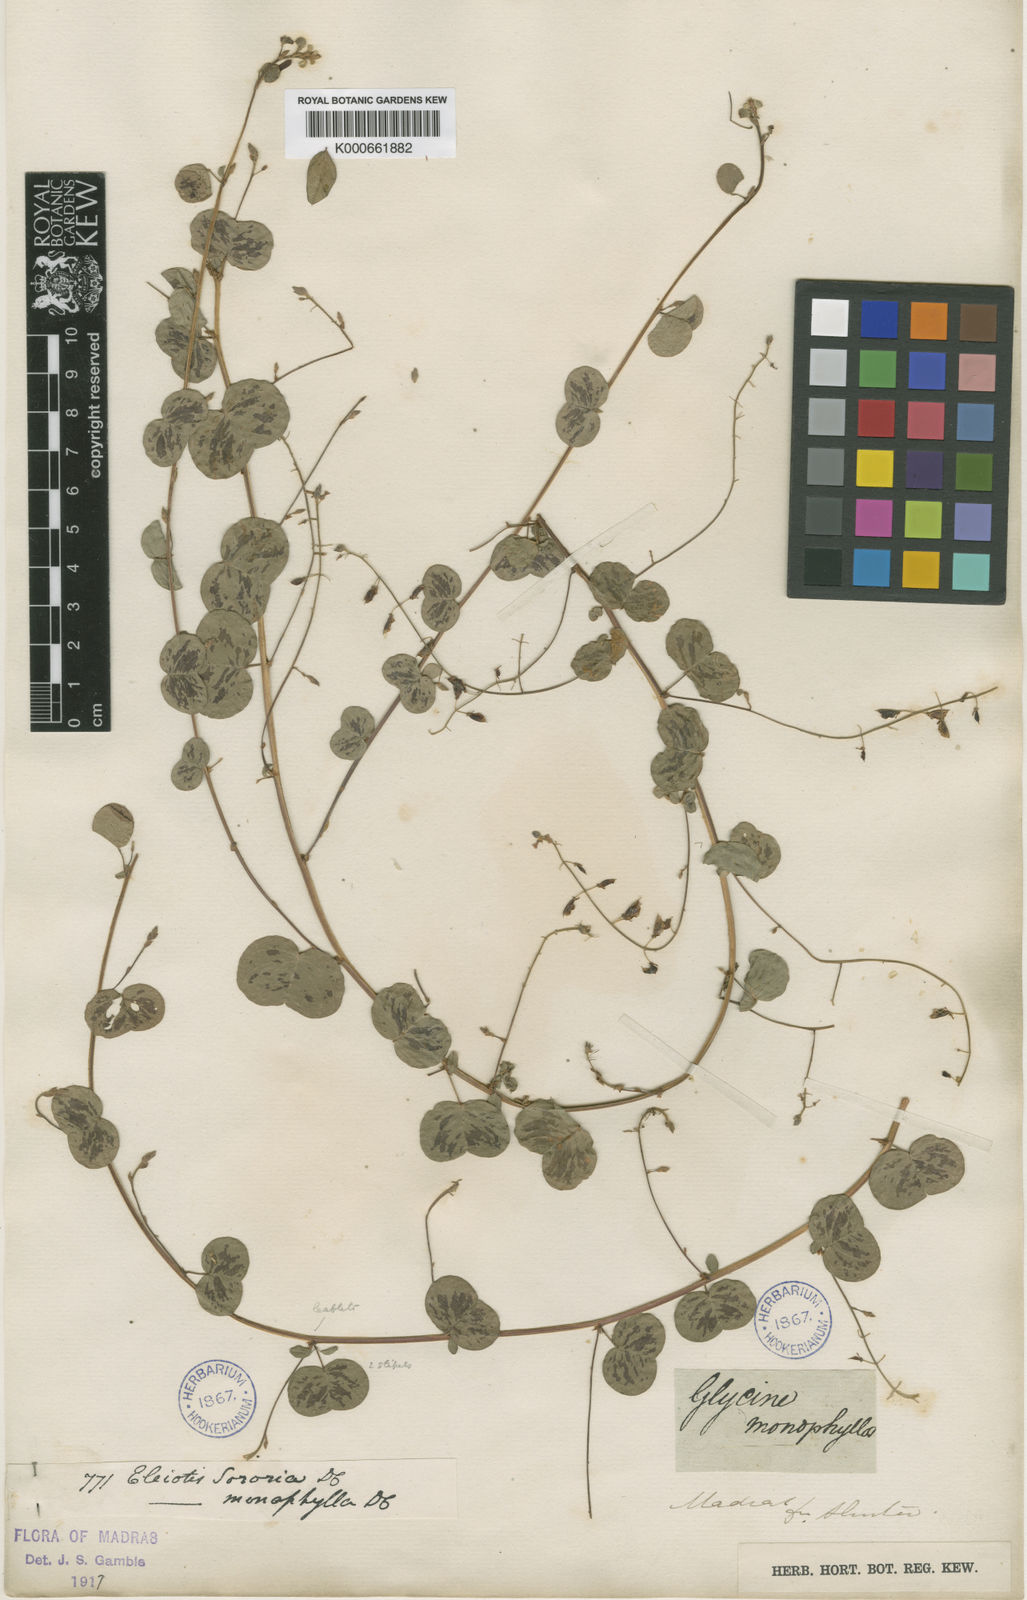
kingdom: Plantae
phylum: Tracheophyta
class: Magnoliopsida
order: Fabales
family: Fabaceae
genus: Eleiotis
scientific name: Eleiotis sororia
